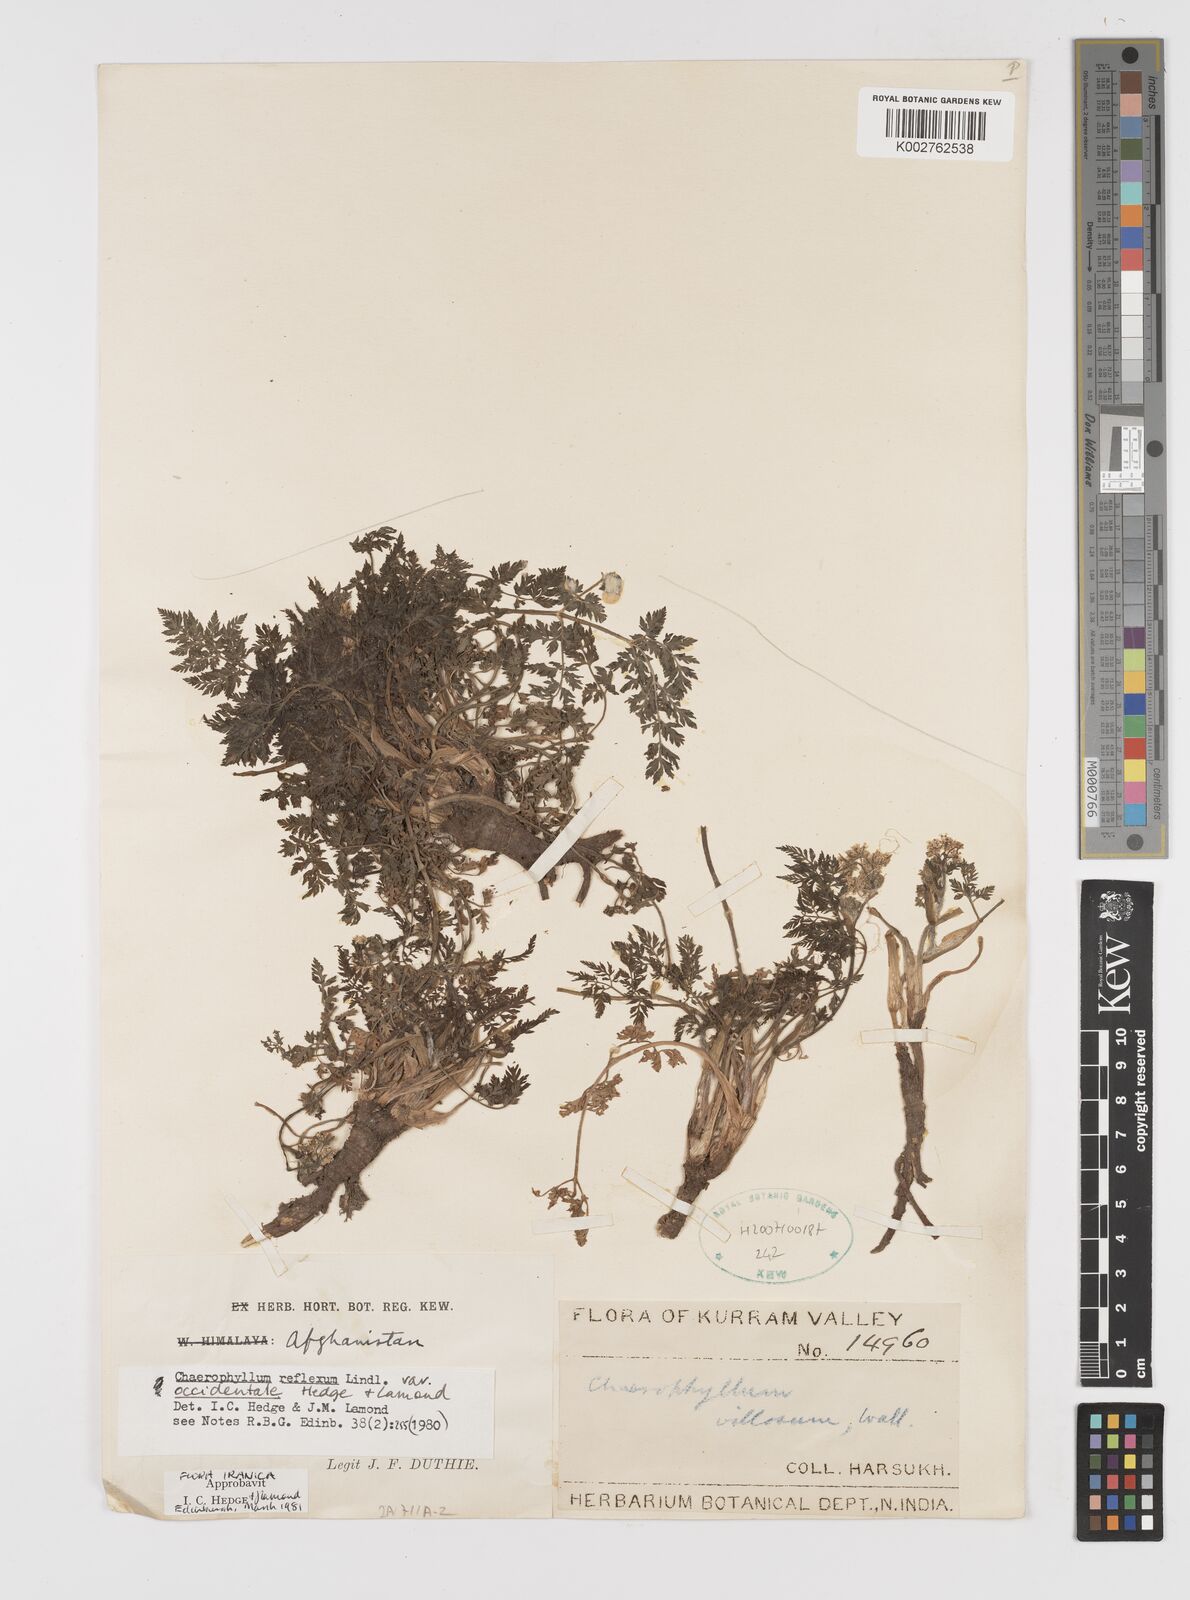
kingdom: Plantae
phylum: Tracheophyta
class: Magnoliopsida
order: Apiales
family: Apiaceae
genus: Chaerophyllum
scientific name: Chaerophyllum reflexum
